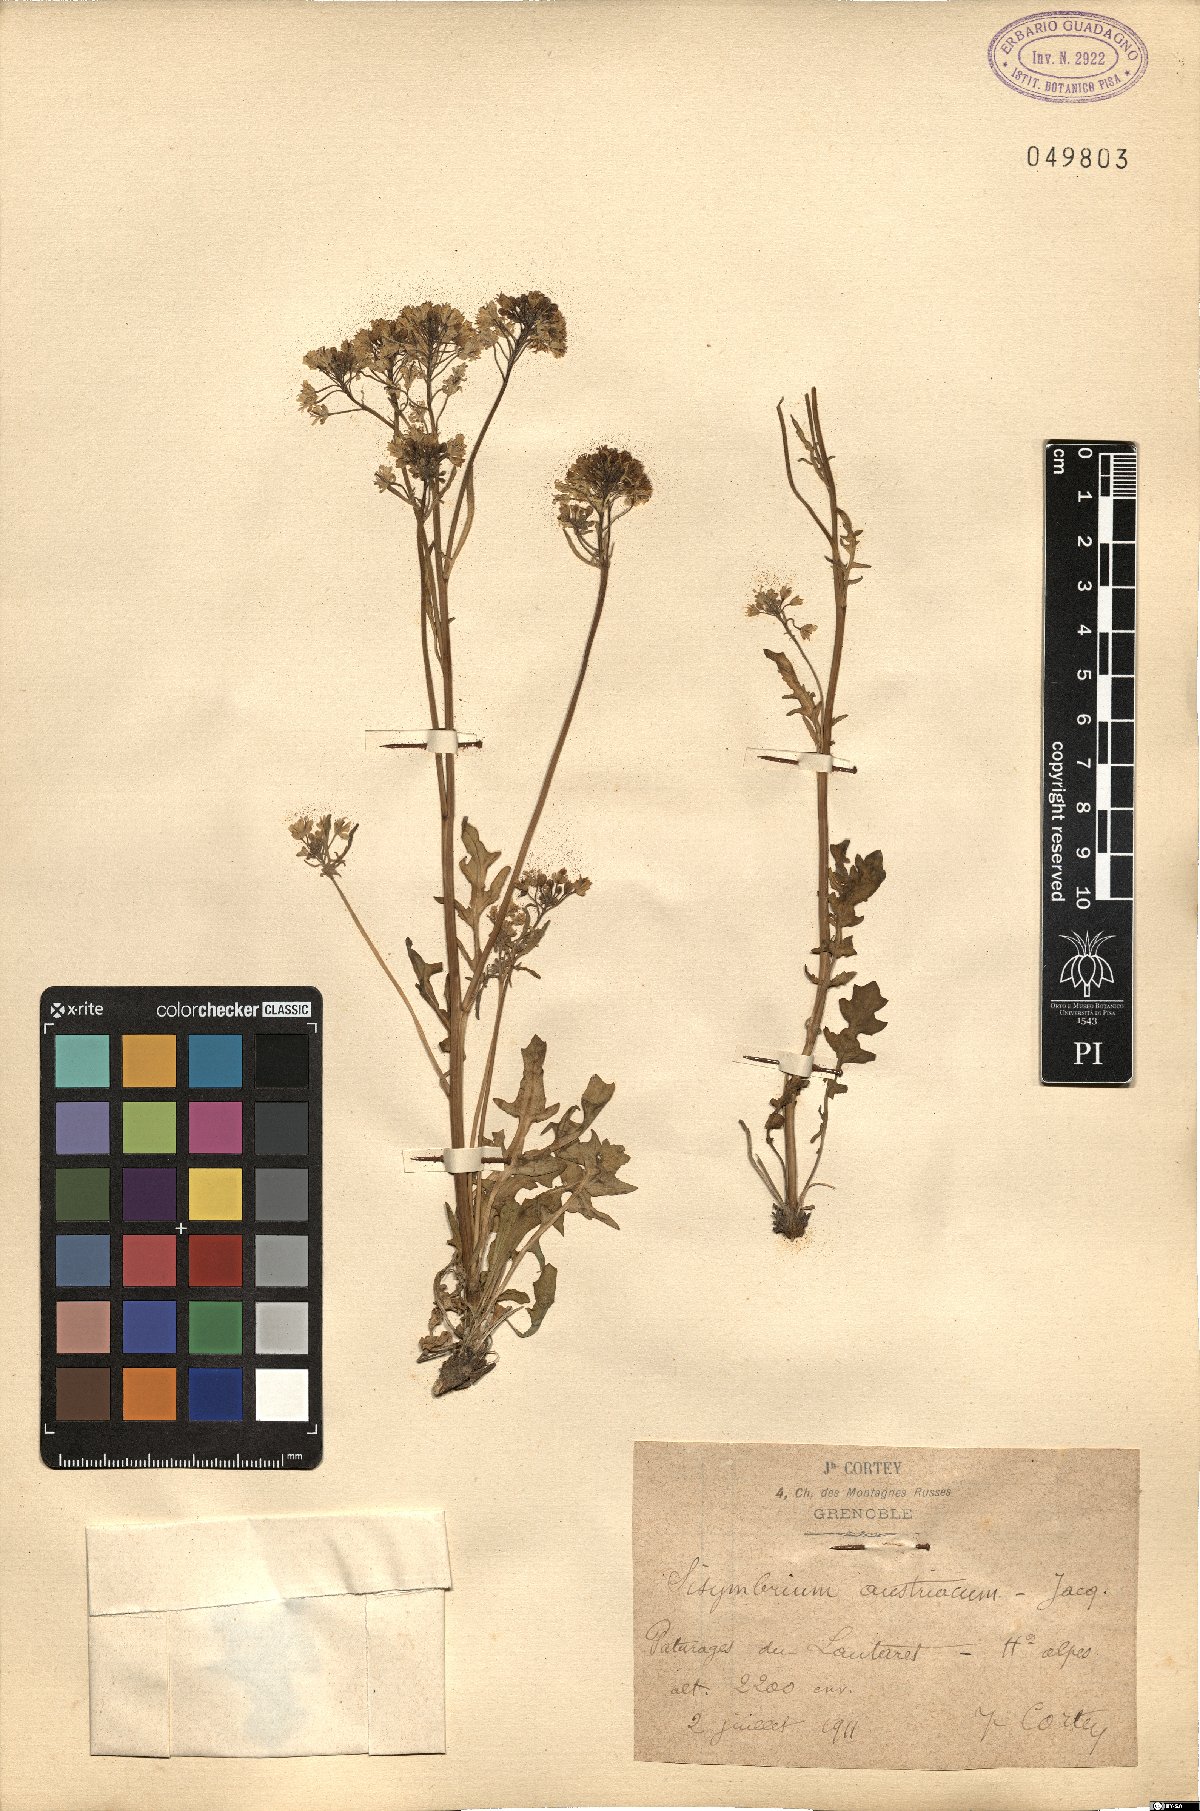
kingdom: Plantae
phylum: Tracheophyta
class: Magnoliopsida
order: Brassicales
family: Brassicaceae
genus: Sisymbrium
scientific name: Sisymbrium austriacum
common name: Jeweled rocket
